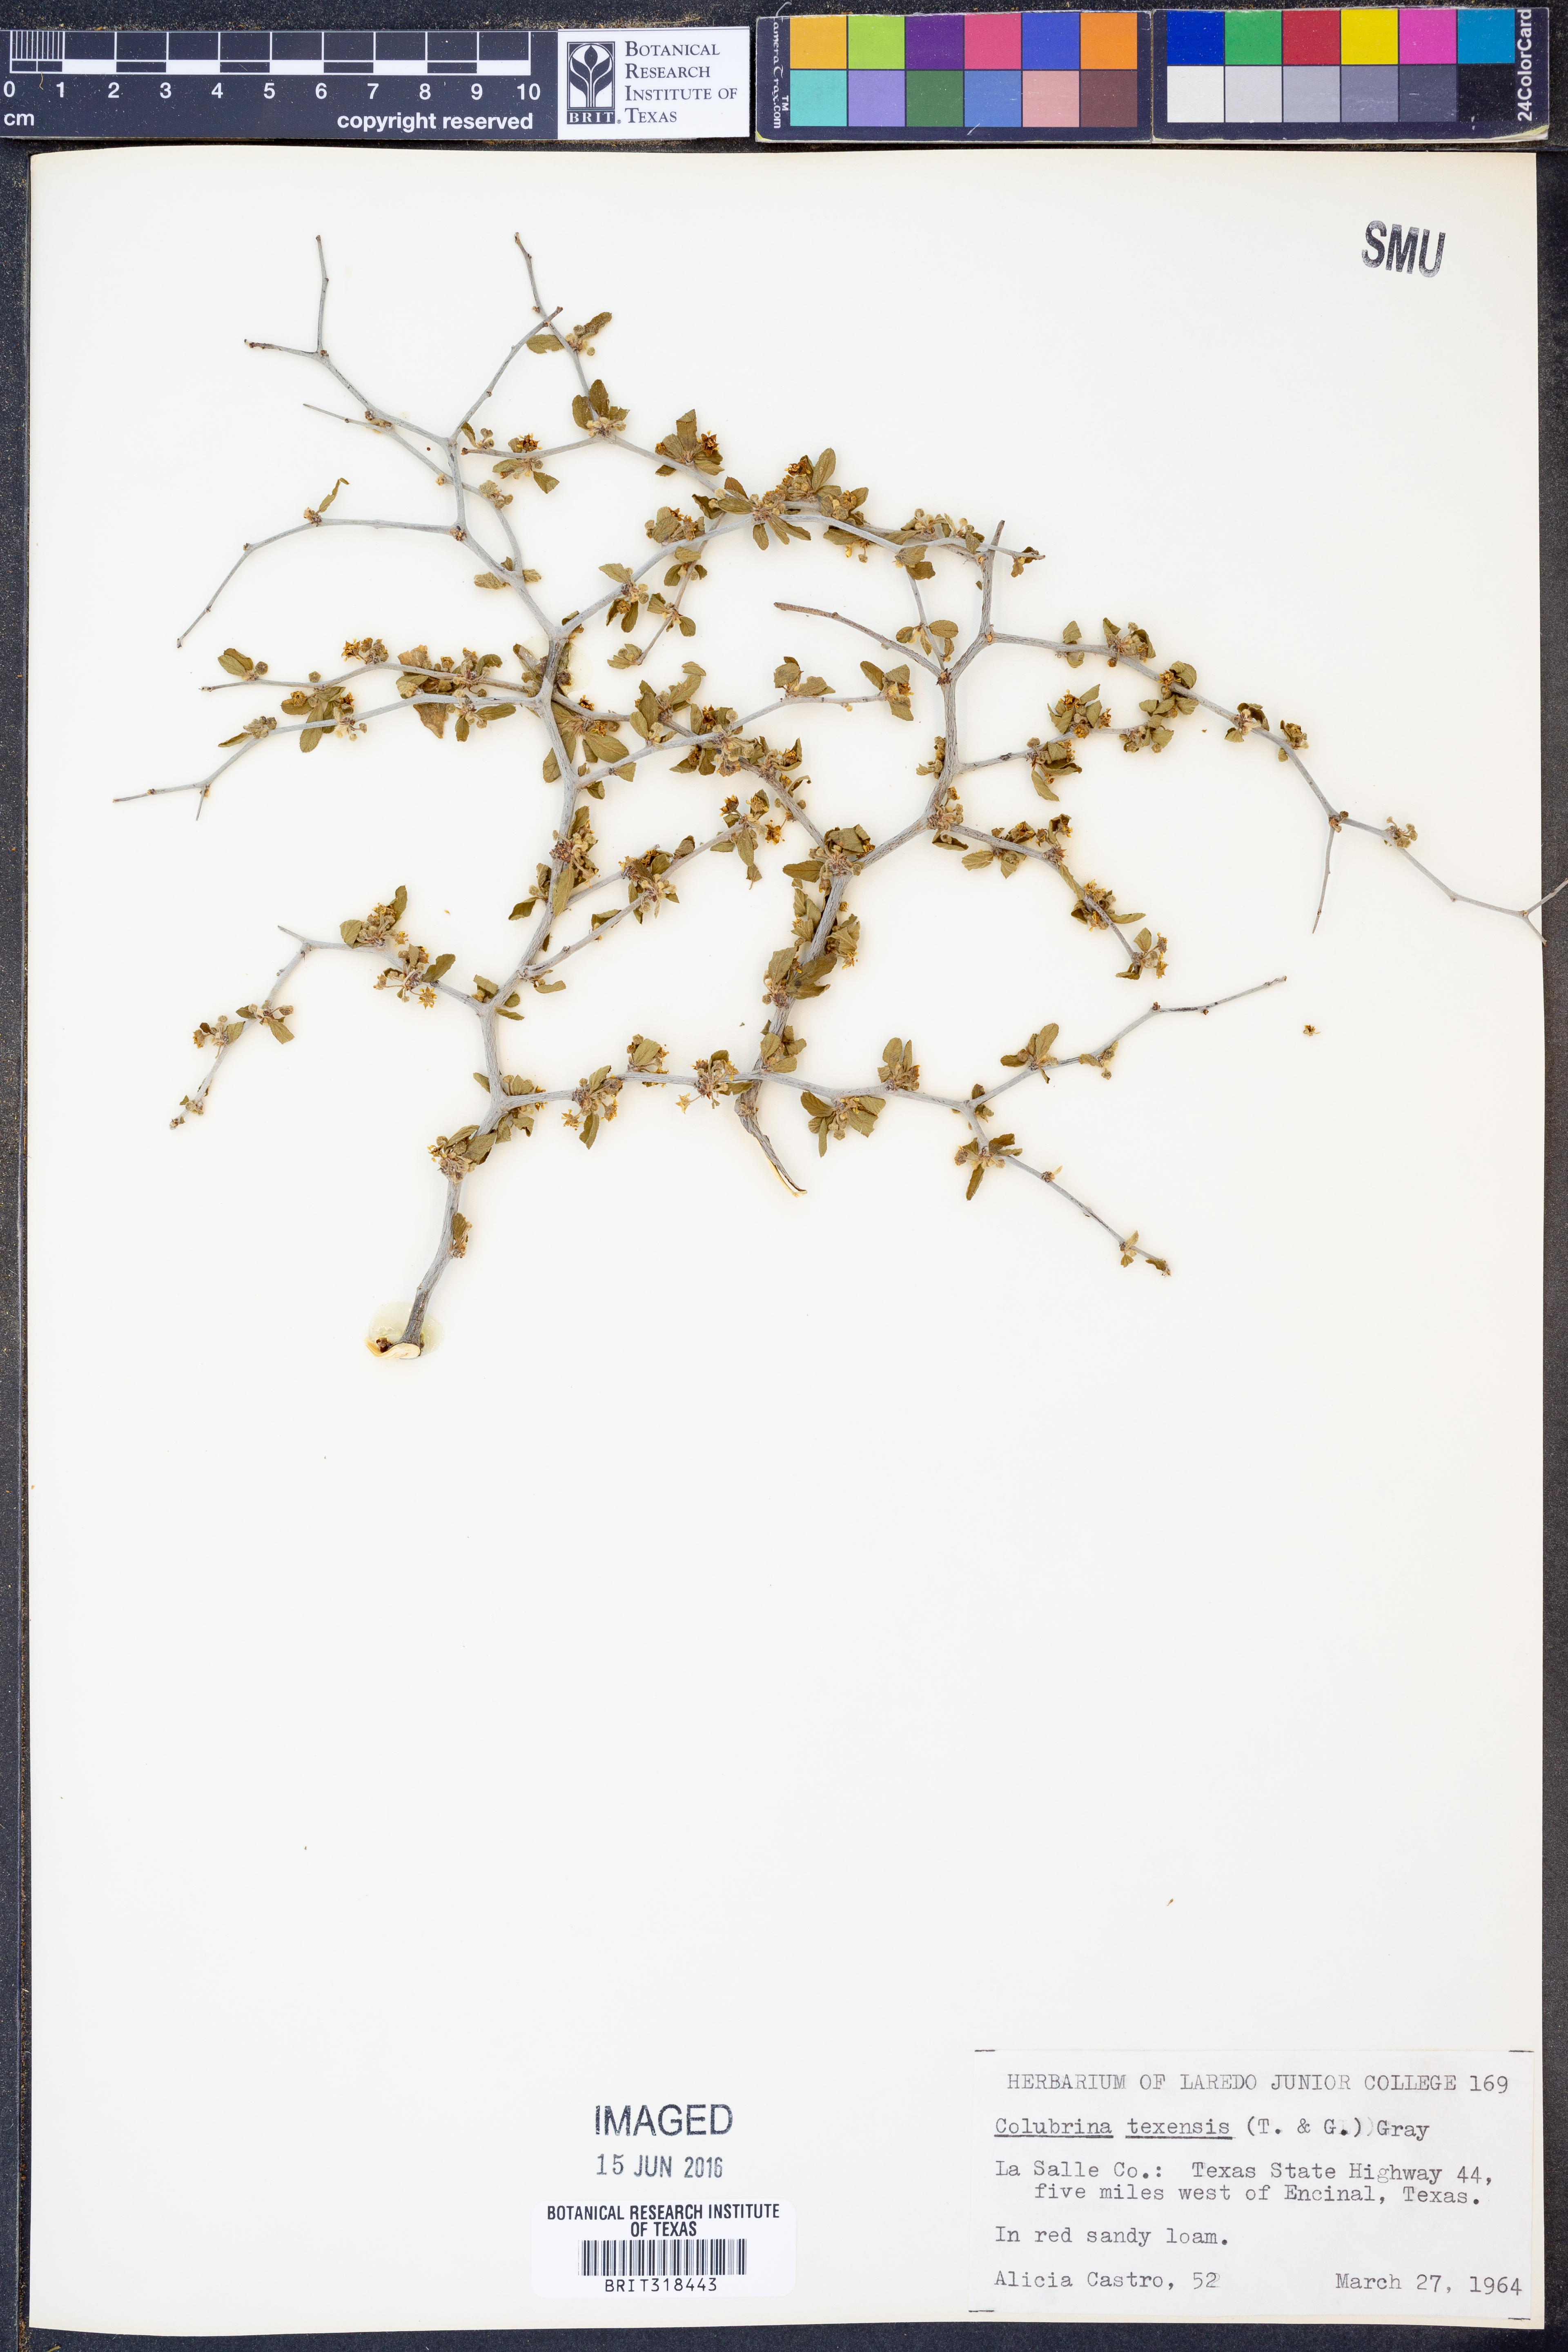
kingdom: Plantae
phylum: Tracheophyta
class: Magnoliopsida
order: Rosales
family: Rhamnaceae
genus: Colubrina
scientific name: Colubrina texensis
